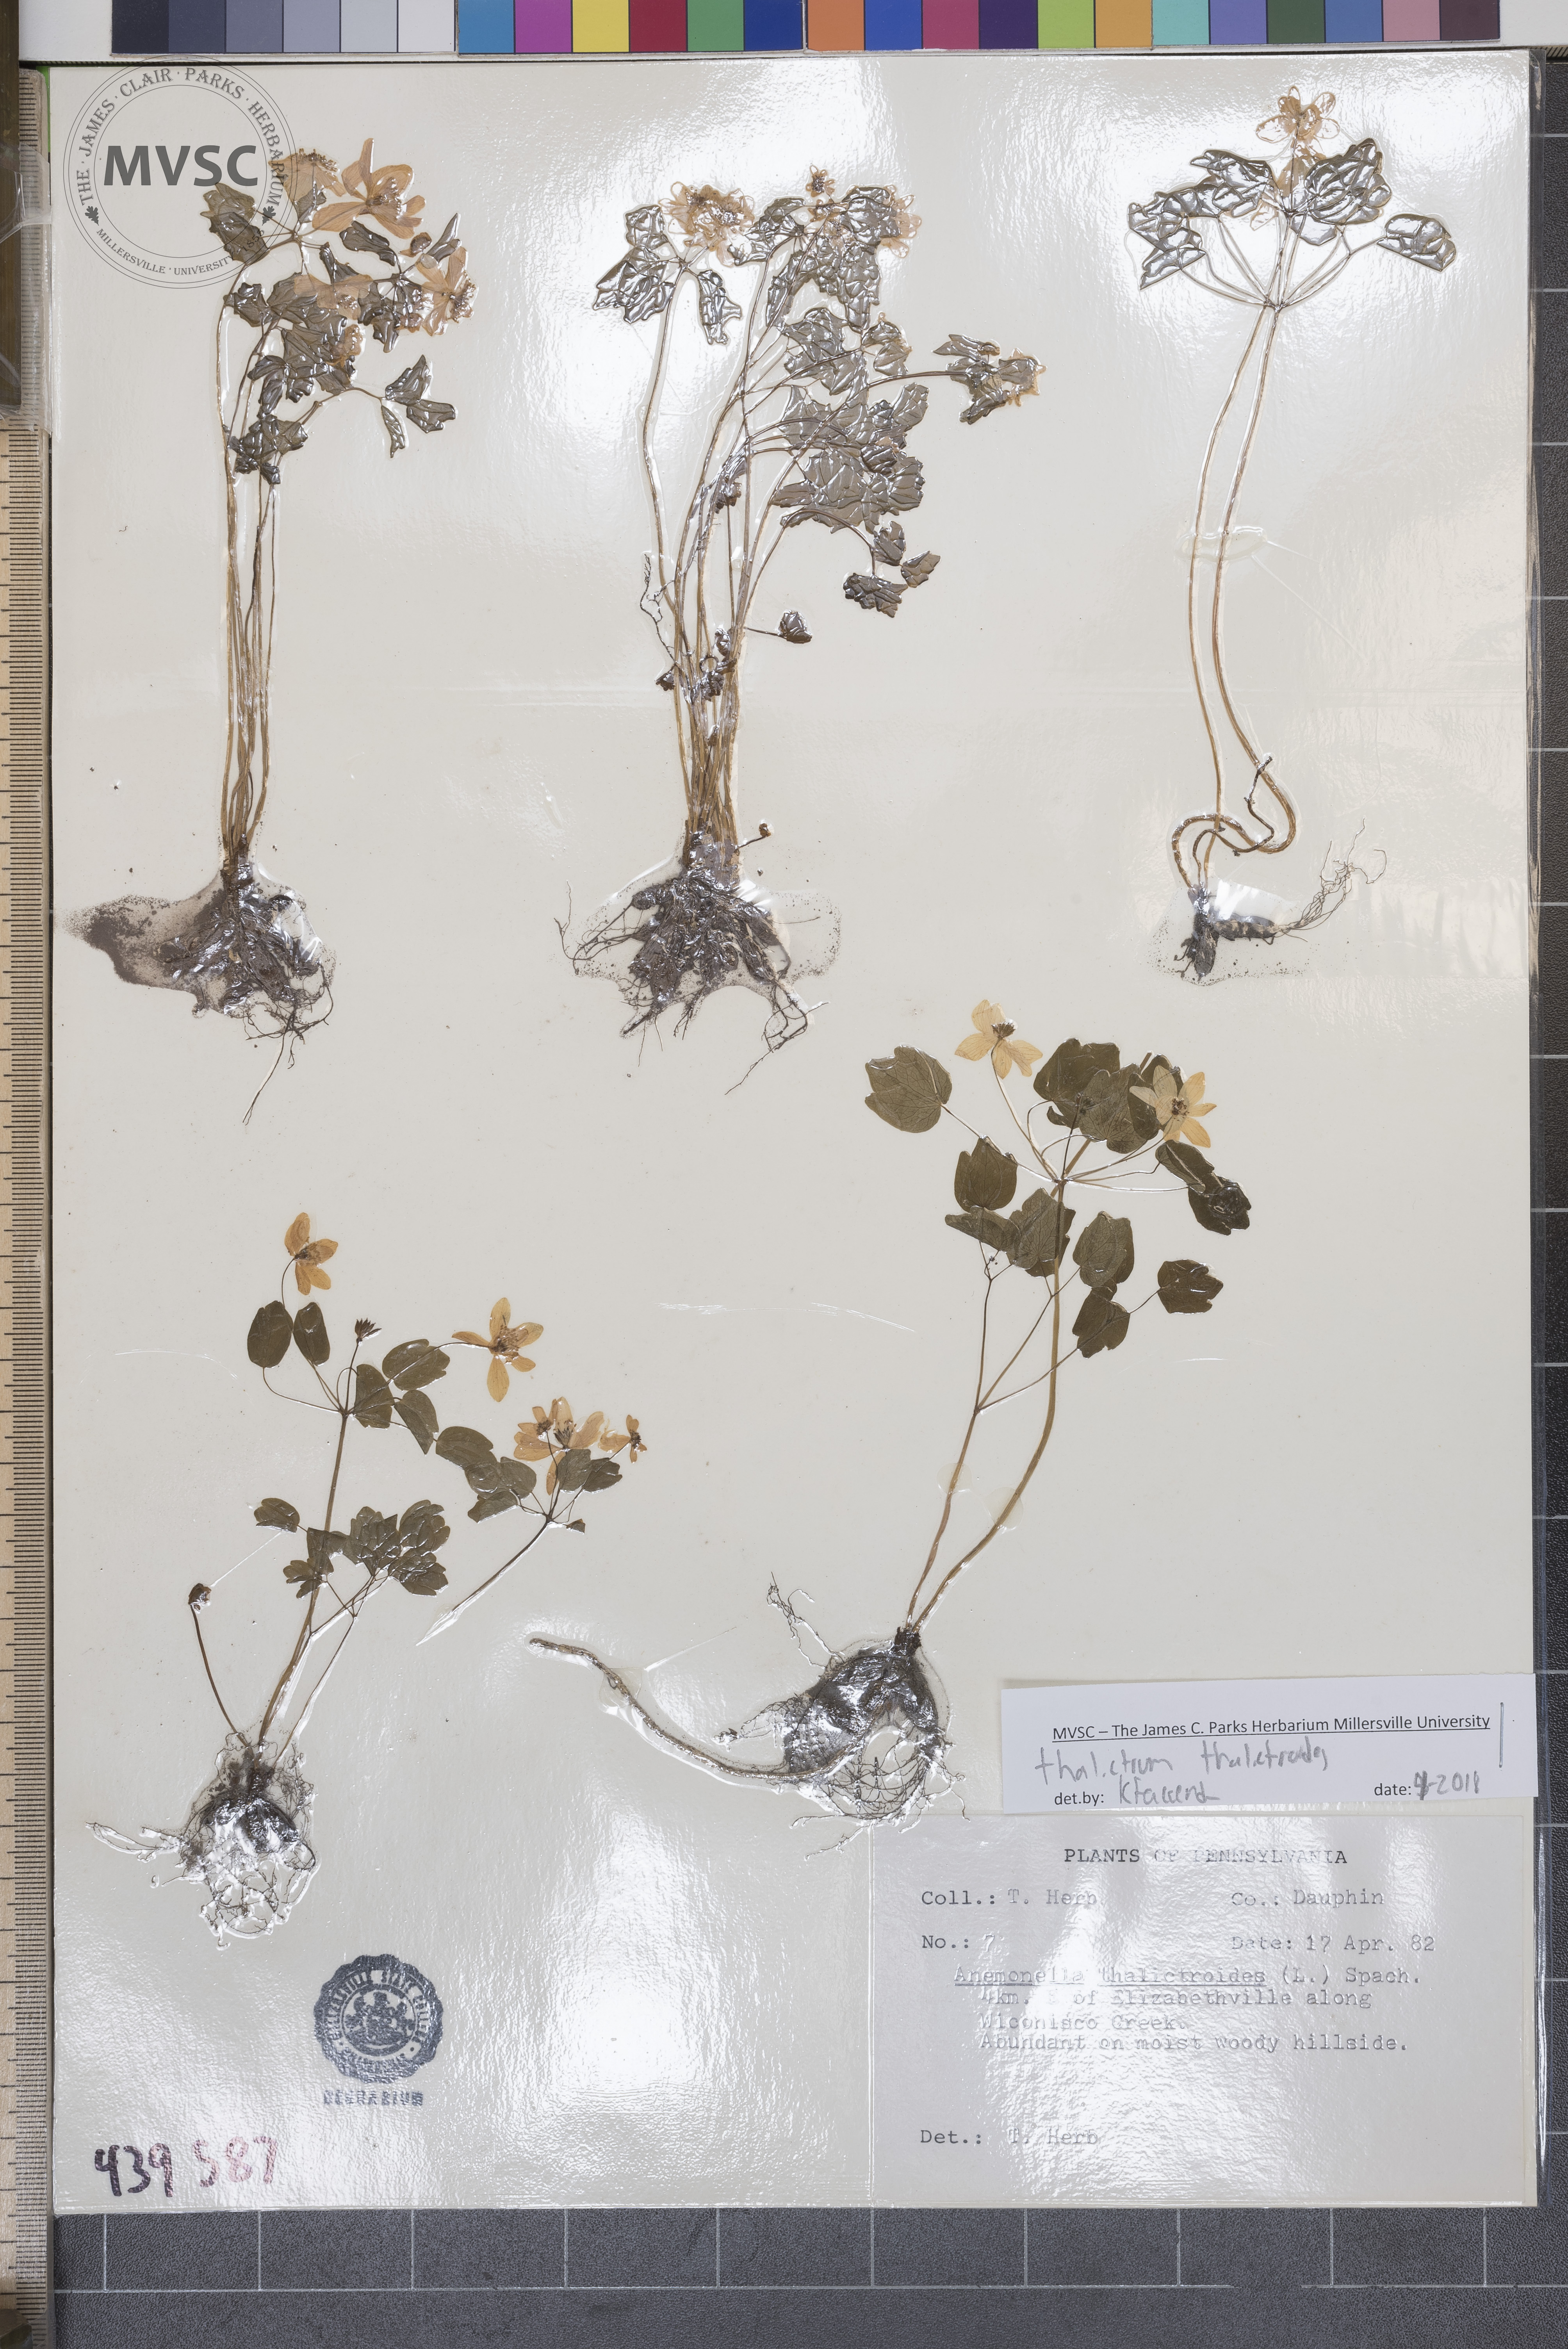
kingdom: Plantae
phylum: Tracheophyta
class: Magnoliopsida
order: Ranunculales
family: Ranunculaceae
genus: Thalictrum
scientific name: Thalictrum thalictroides
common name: Rue-anemone
